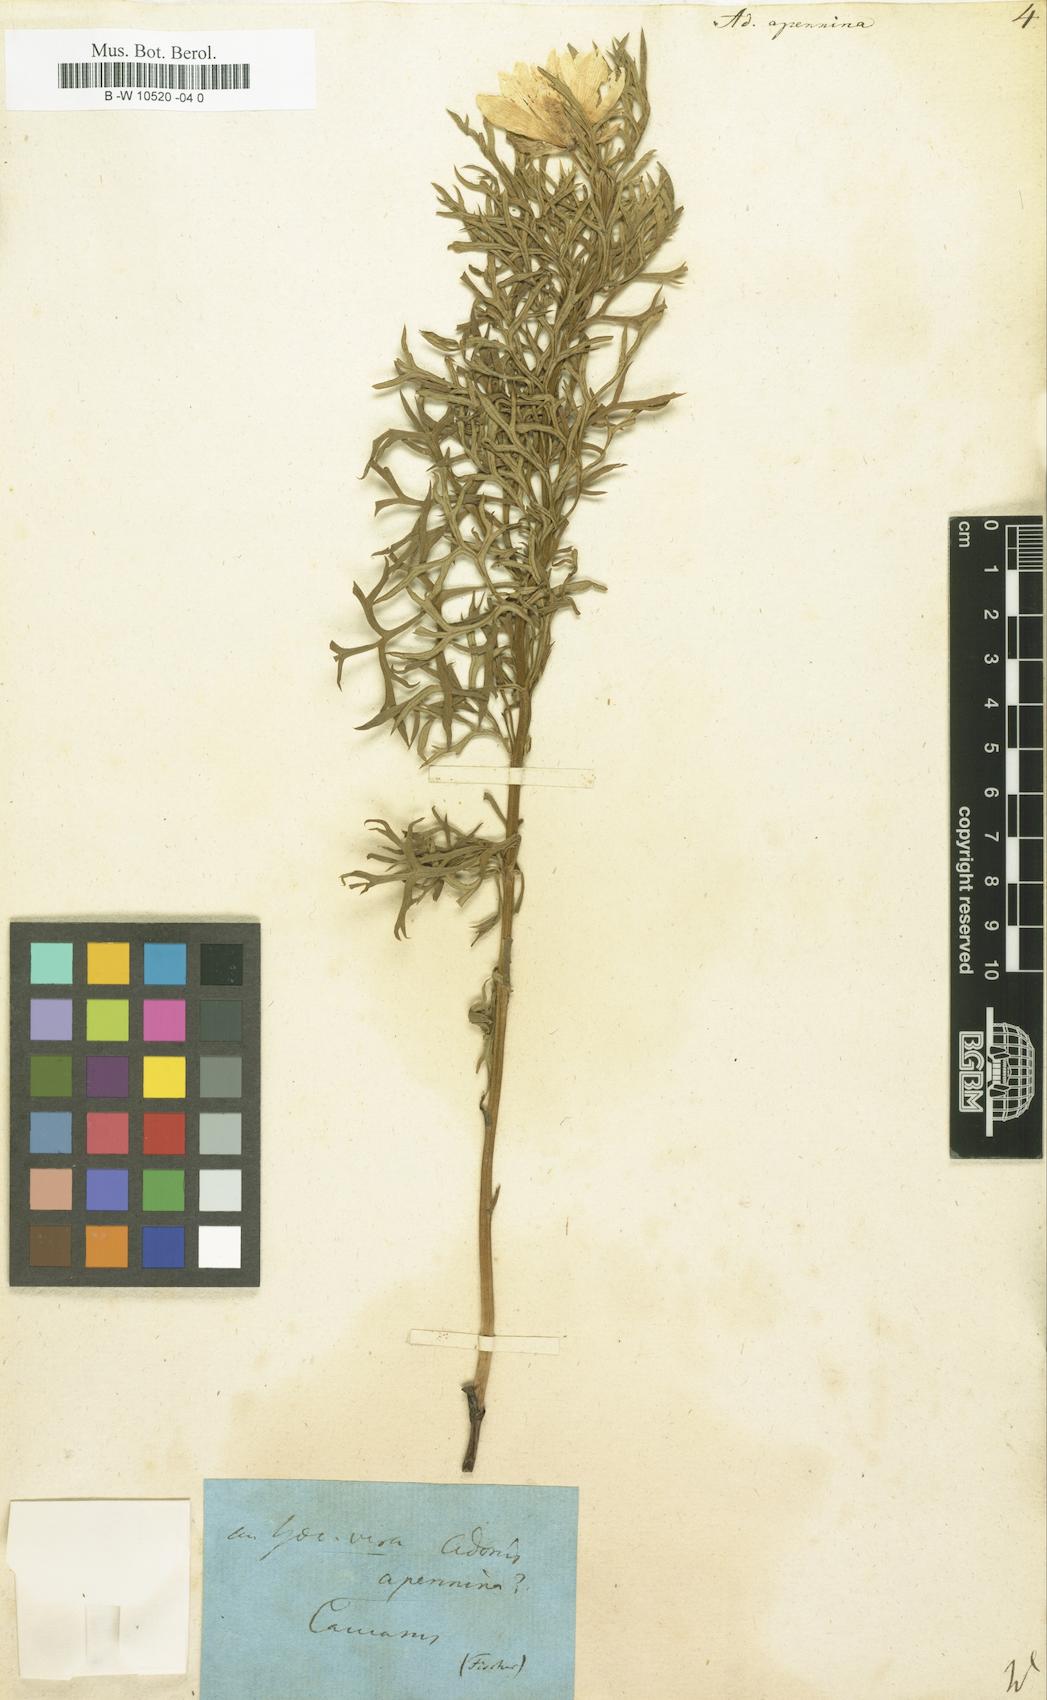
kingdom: Plantae
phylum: Tracheophyta
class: Magnoliopsida
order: Ranunculales
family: Ranunculaceae
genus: Adonis
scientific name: Adonis vernalis
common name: Yellow pheasants-eye
